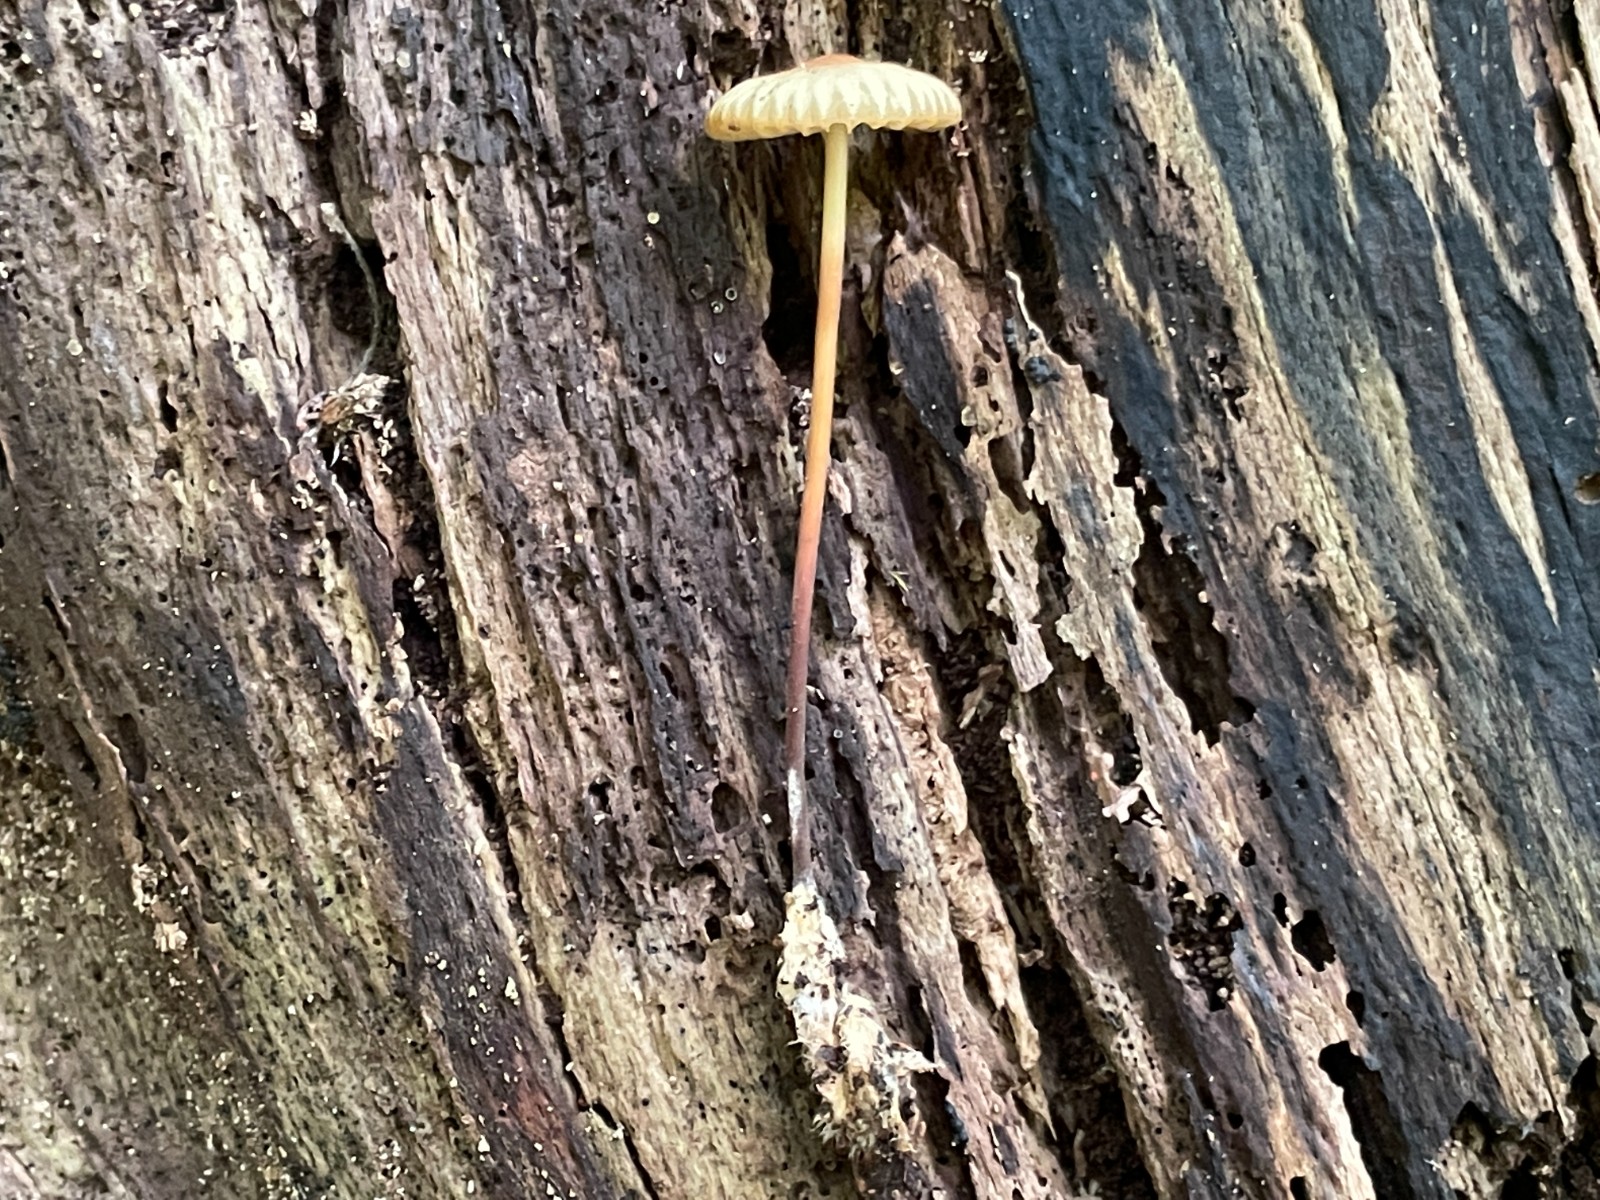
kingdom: Fungi
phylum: Basidiomycota
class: Agaricomycetes
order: Agaricales
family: Marasmiaceae
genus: Marasmius
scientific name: Marasmius torquescens
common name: filtfodet bruskhat
